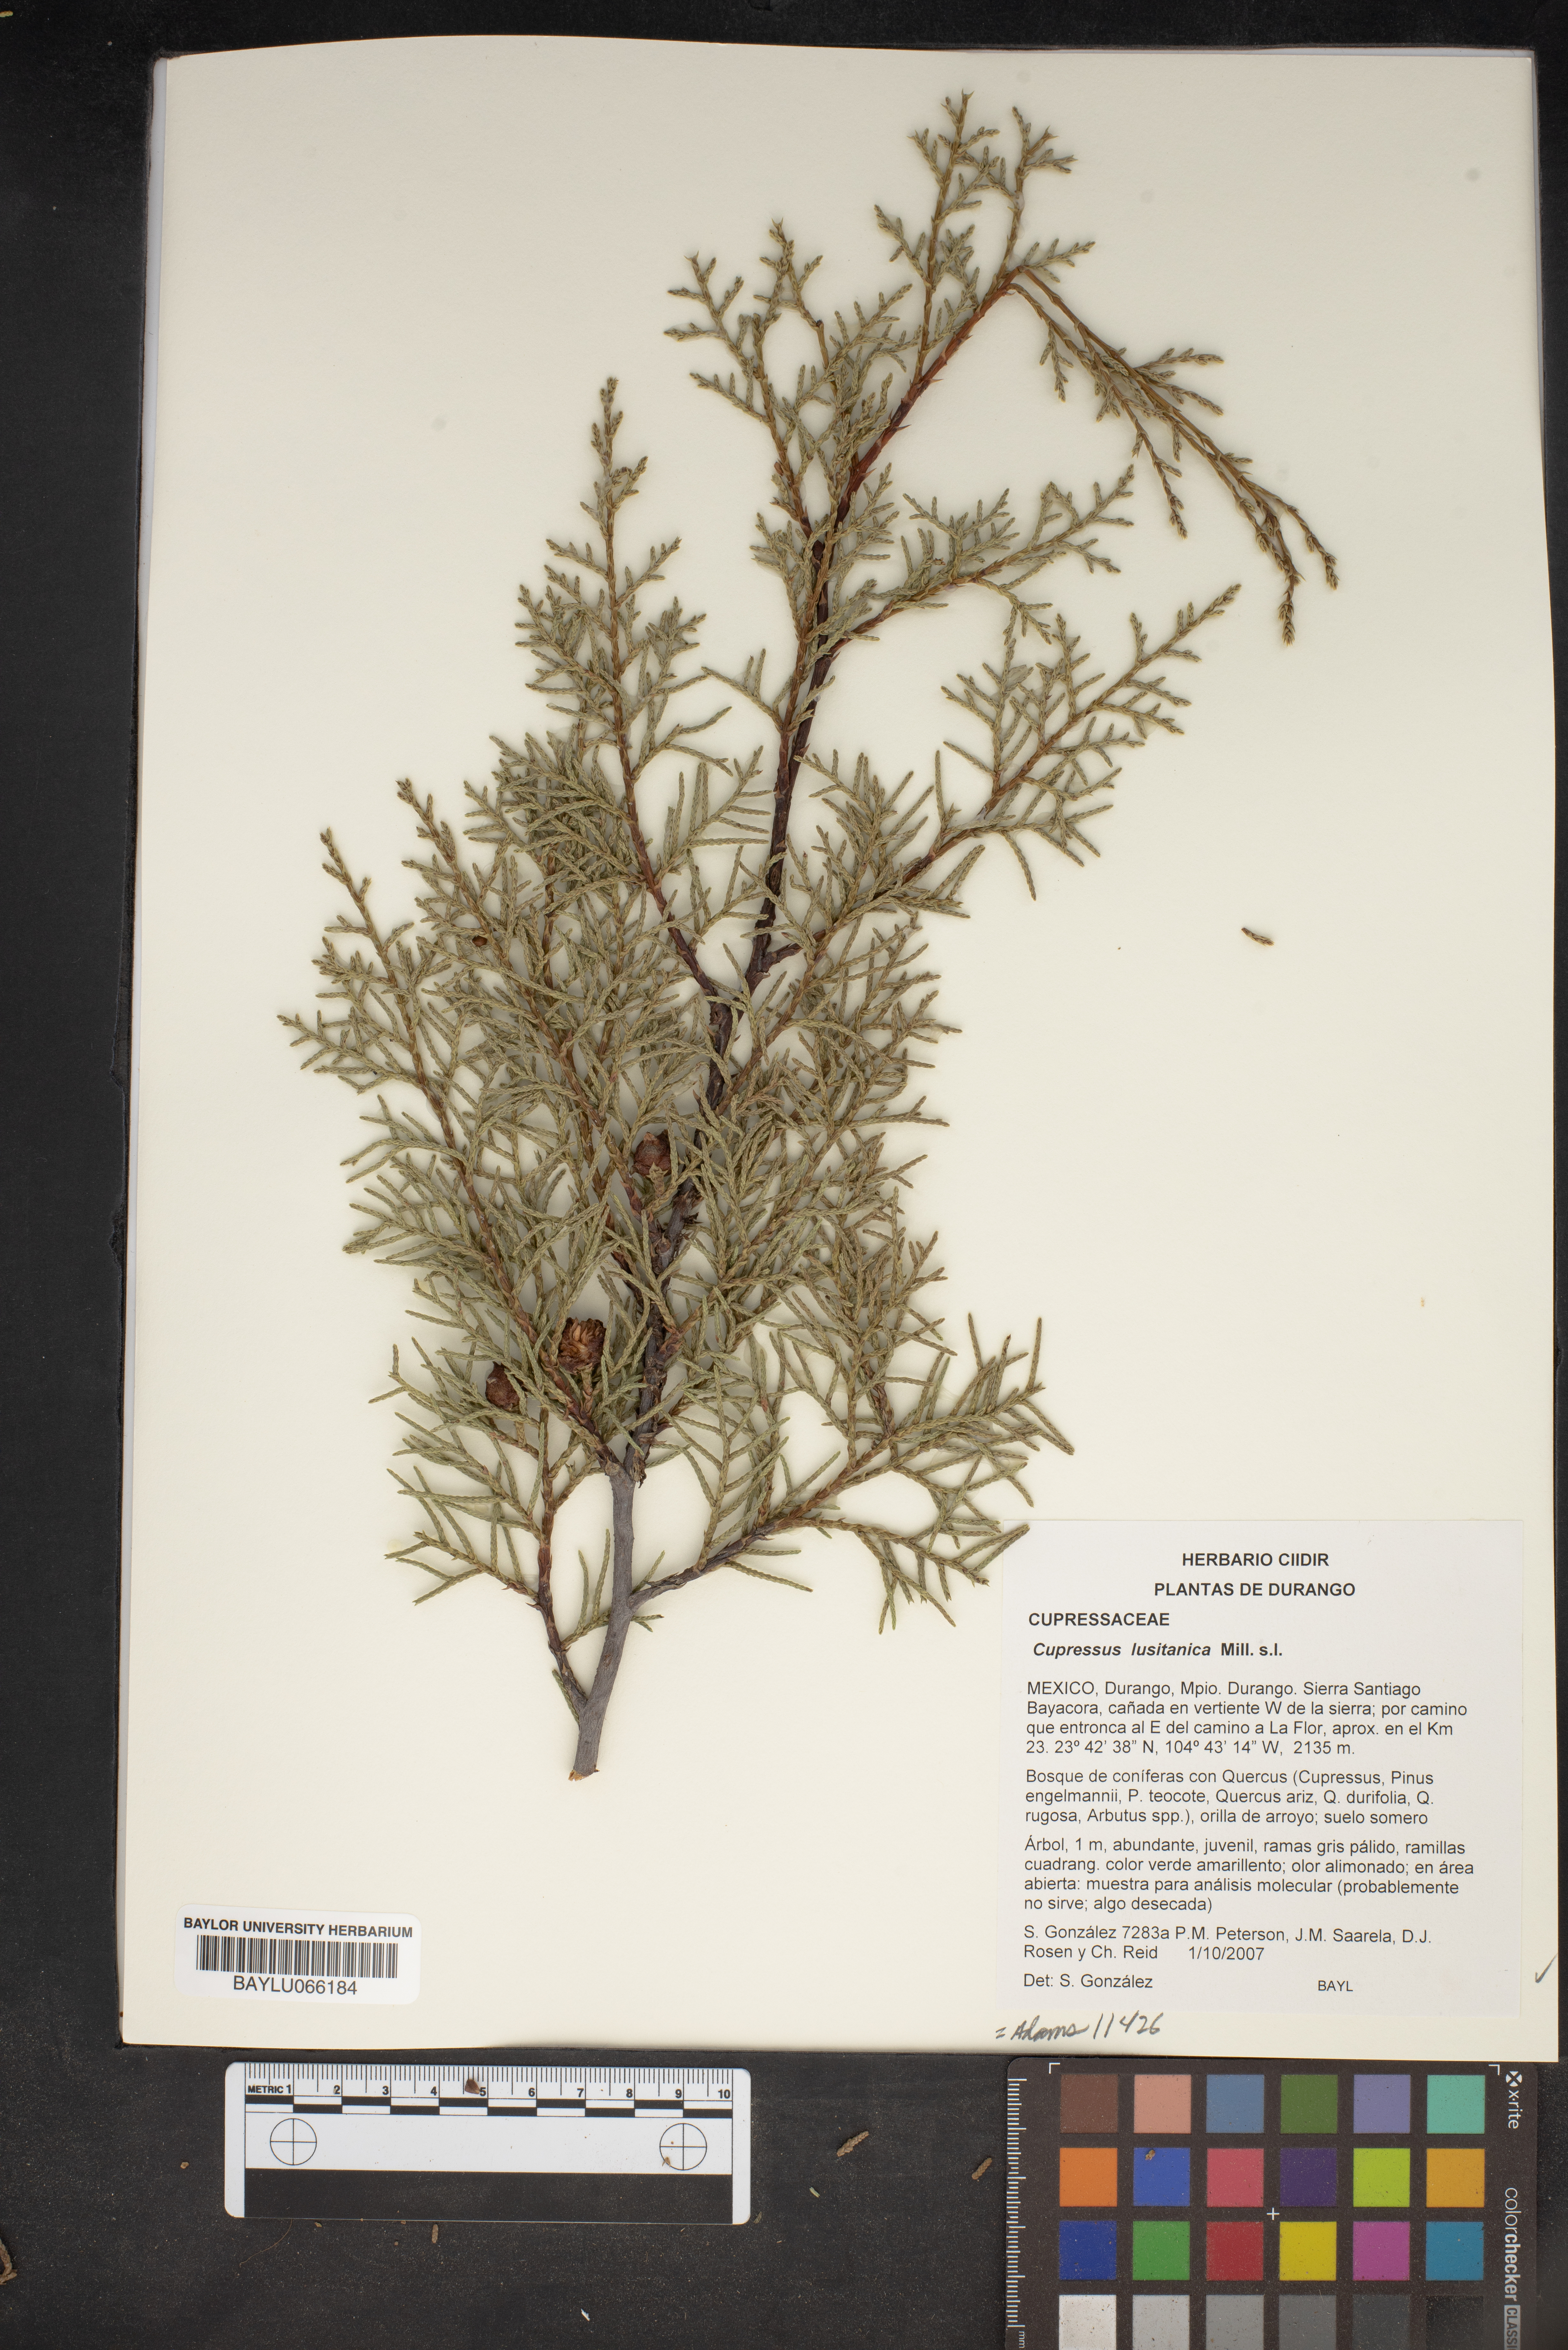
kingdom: Plantae
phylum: Tracheophyta
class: Pinopsida
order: Pinales
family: Cupressaceae
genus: Cupressus
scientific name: Cupressus lusitanica
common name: Mexican cypress
